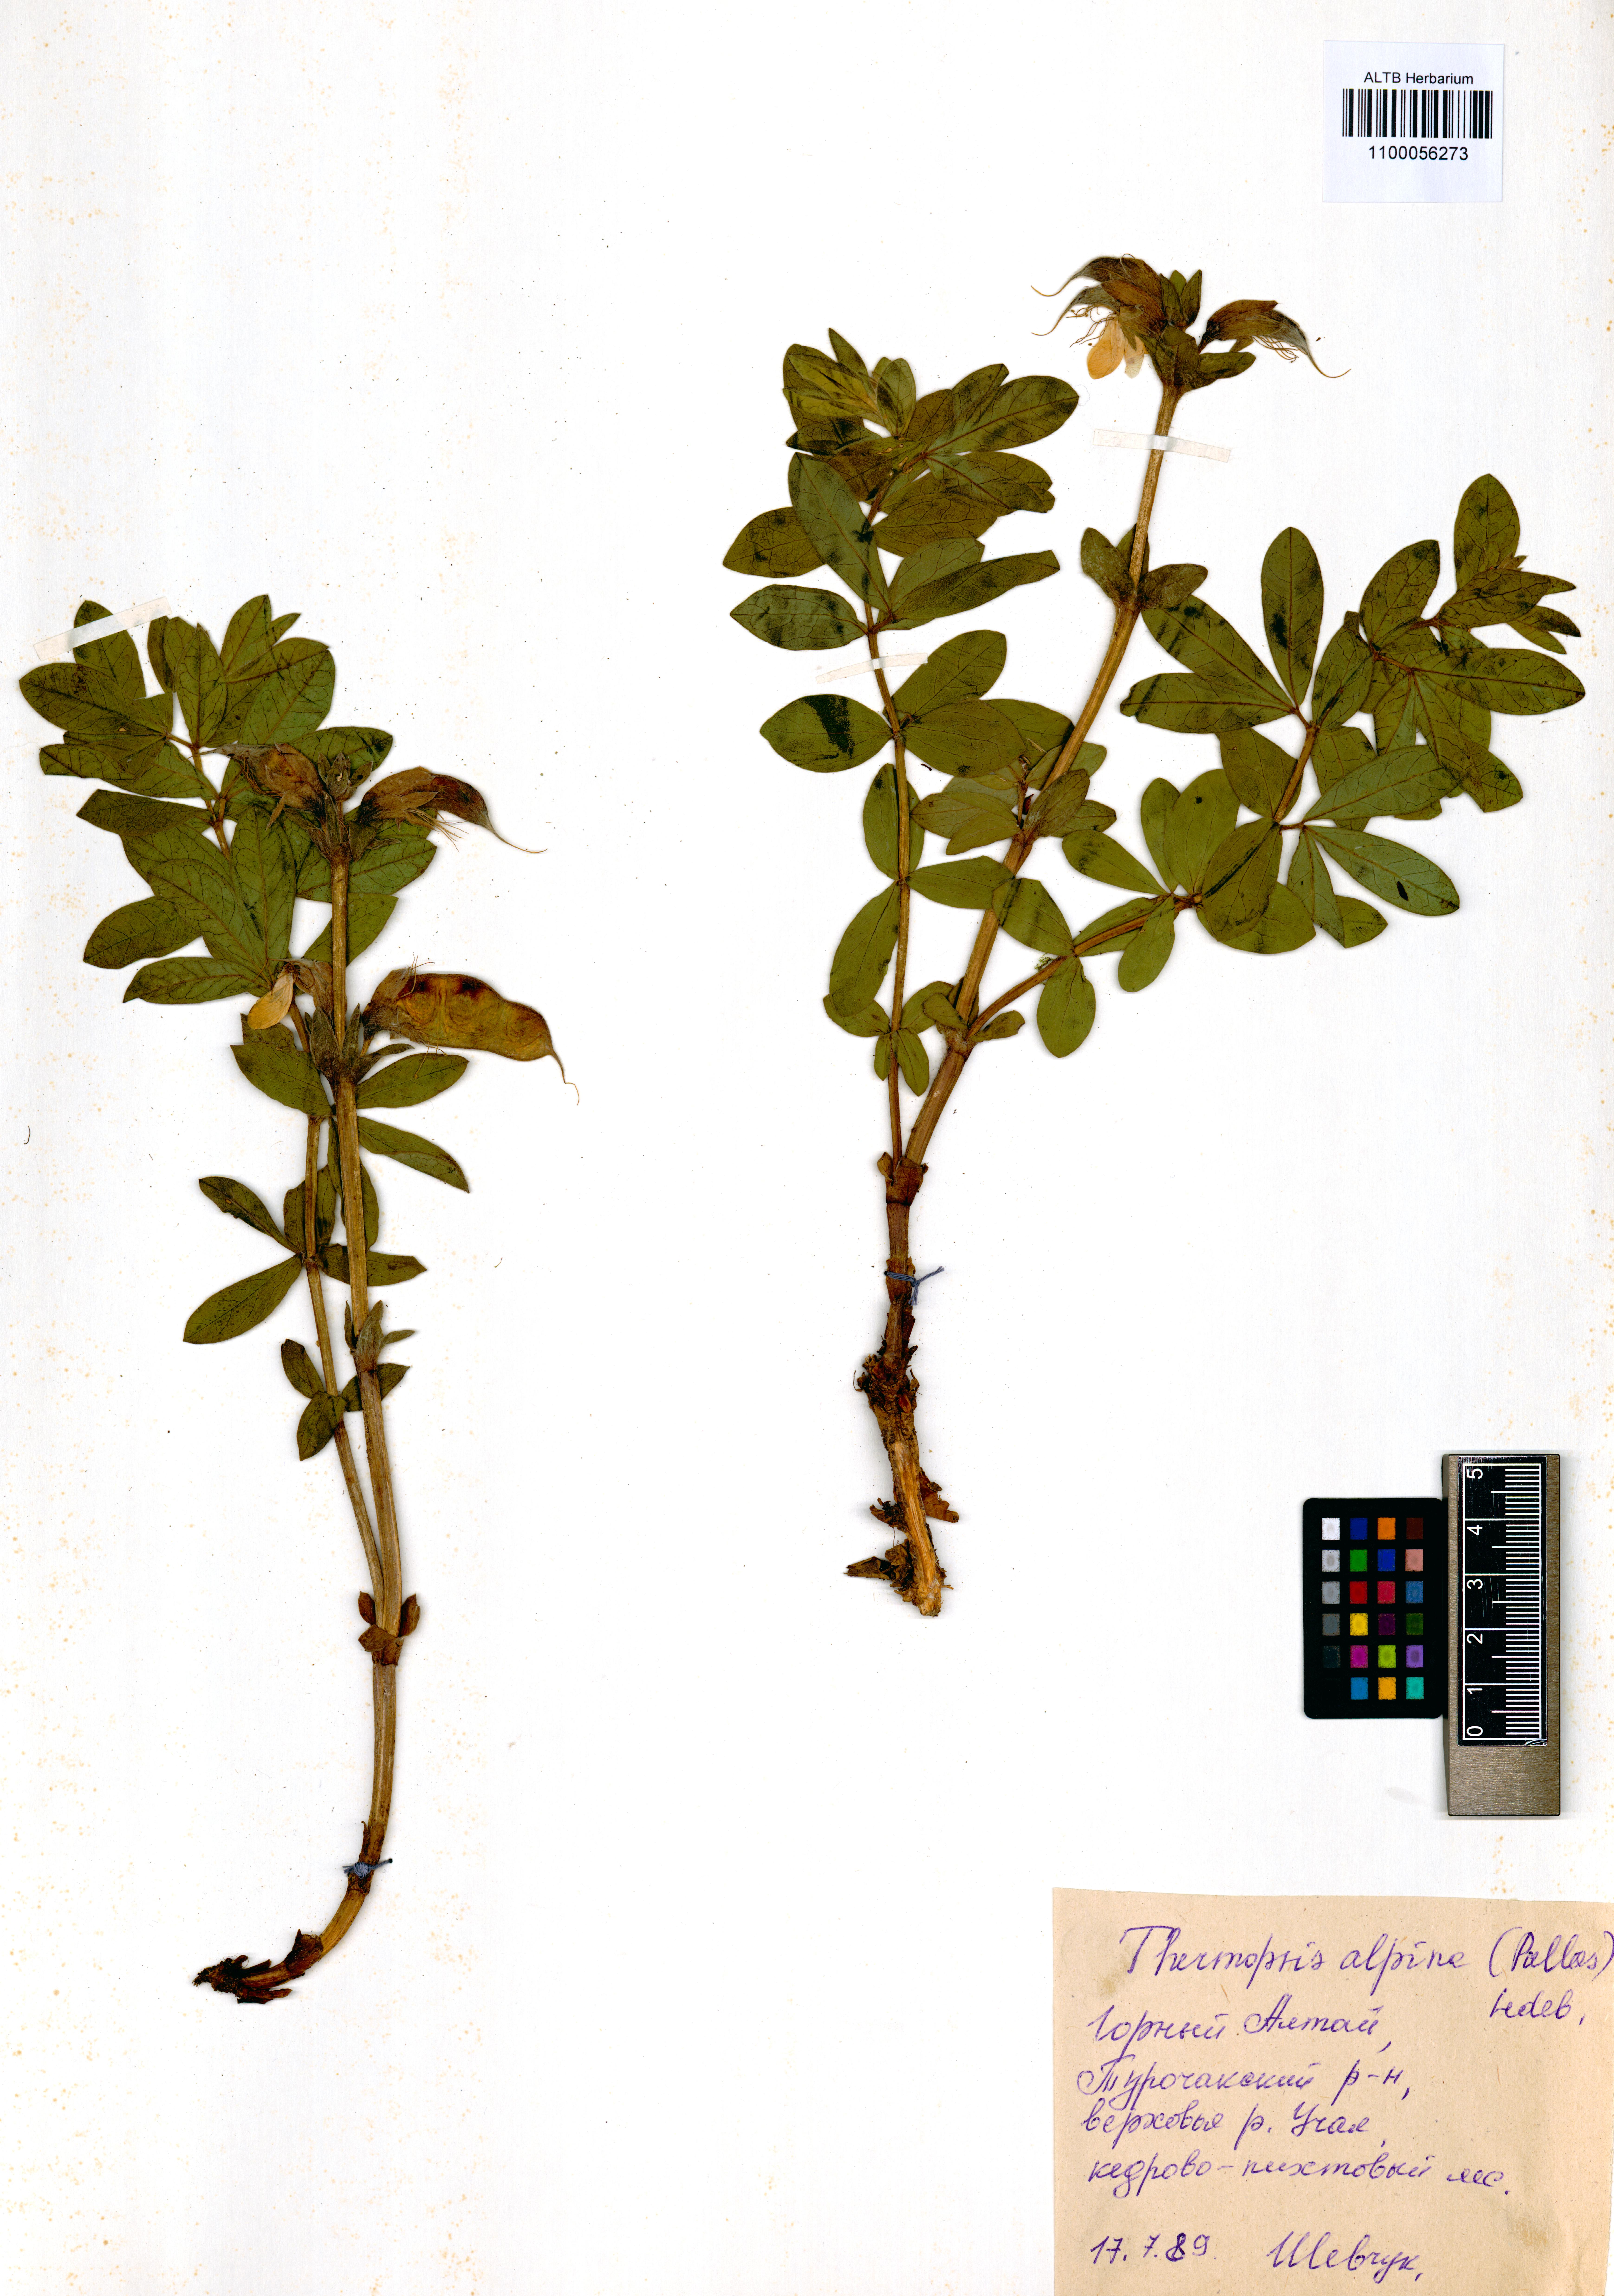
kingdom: Plantae
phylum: Tracheophyta
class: Magnoliopsida
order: Fabales
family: Fabaceae
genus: Thermopsis
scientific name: Thermopsis alpina
